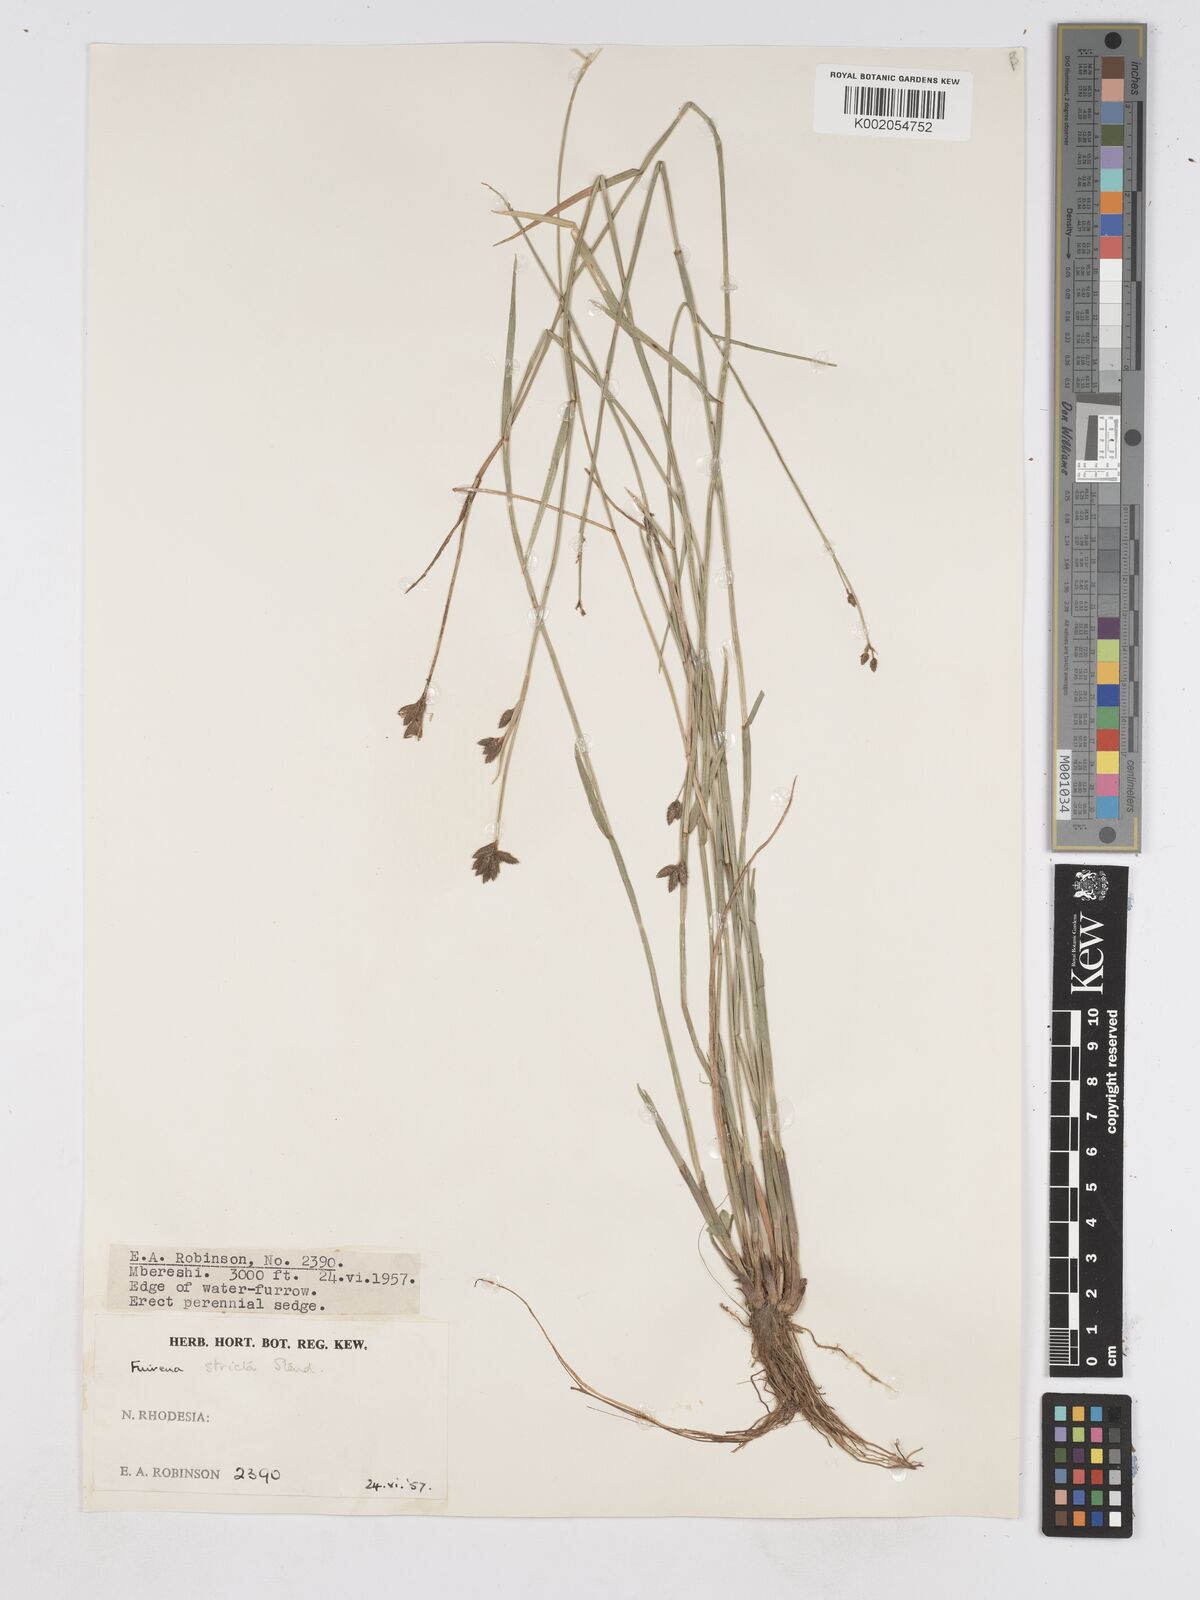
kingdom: Plantae
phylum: Tracheophyta
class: Liliopsida
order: Poales
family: Cyperaceae
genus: Fuirena
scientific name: Fuirena stricta
